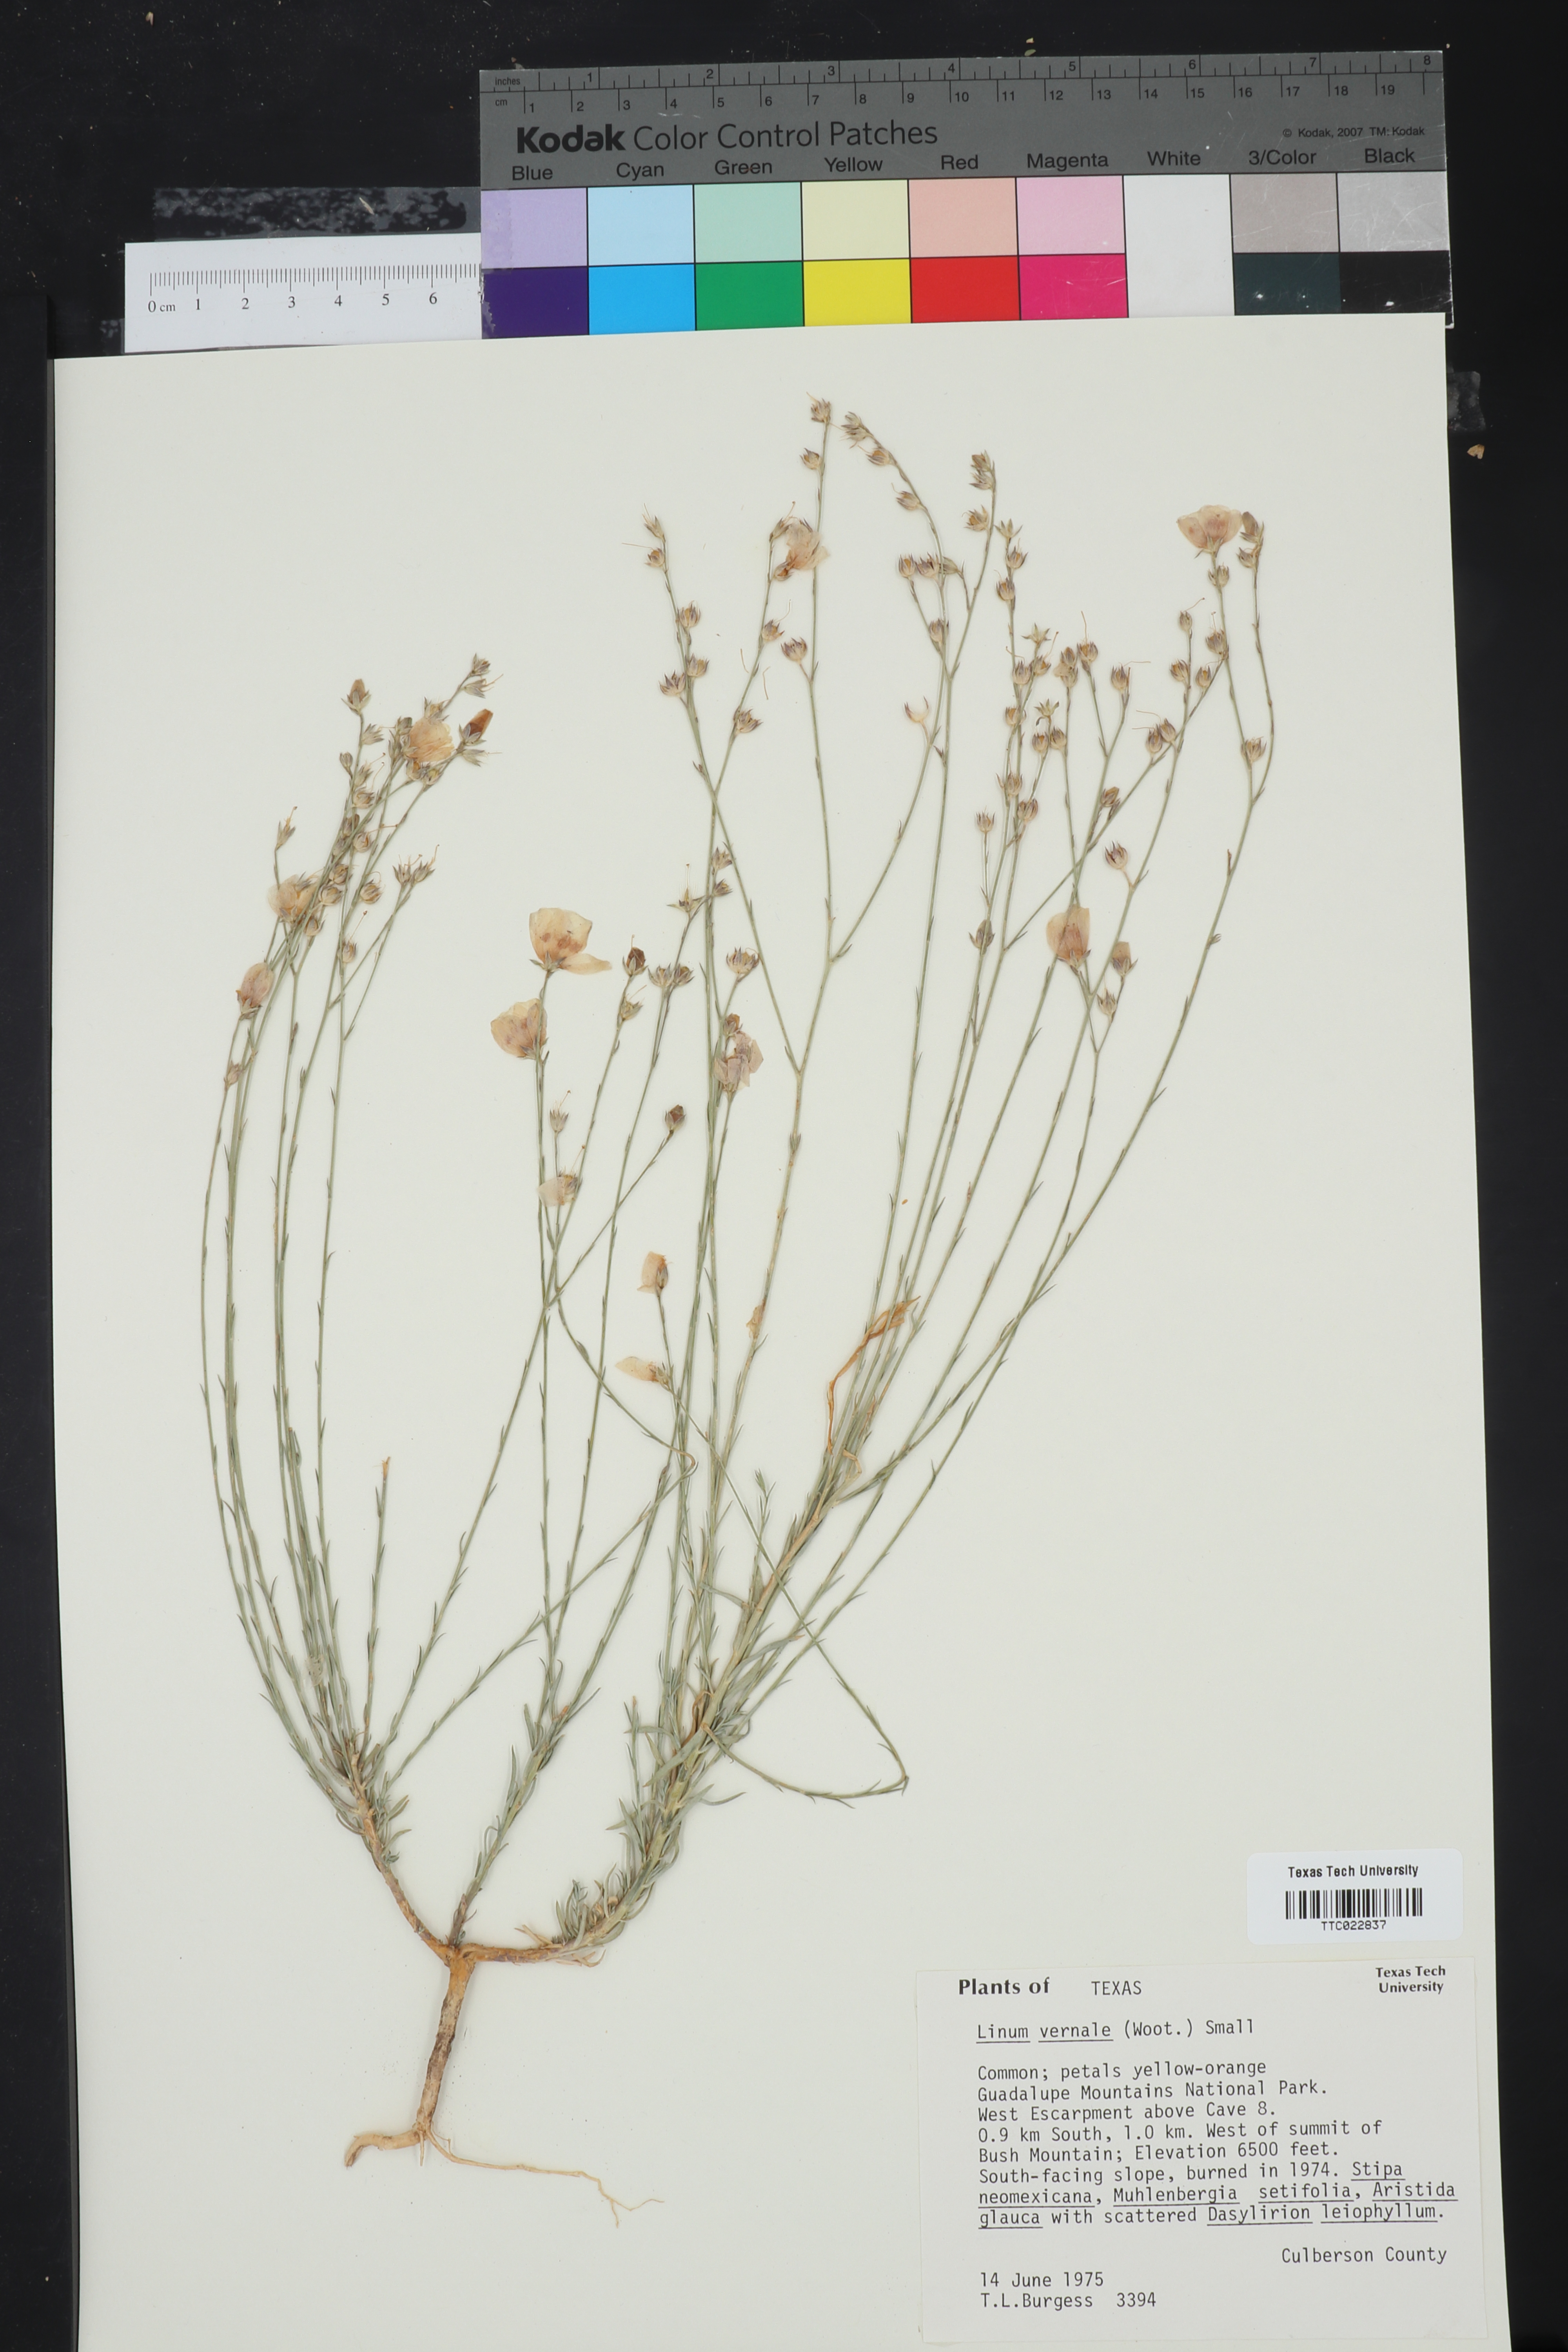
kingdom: Plantae
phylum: Tracheophyta
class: Magnoliopsida
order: Malpighiales
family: Linaceae
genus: Linum
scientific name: Linum vernale
